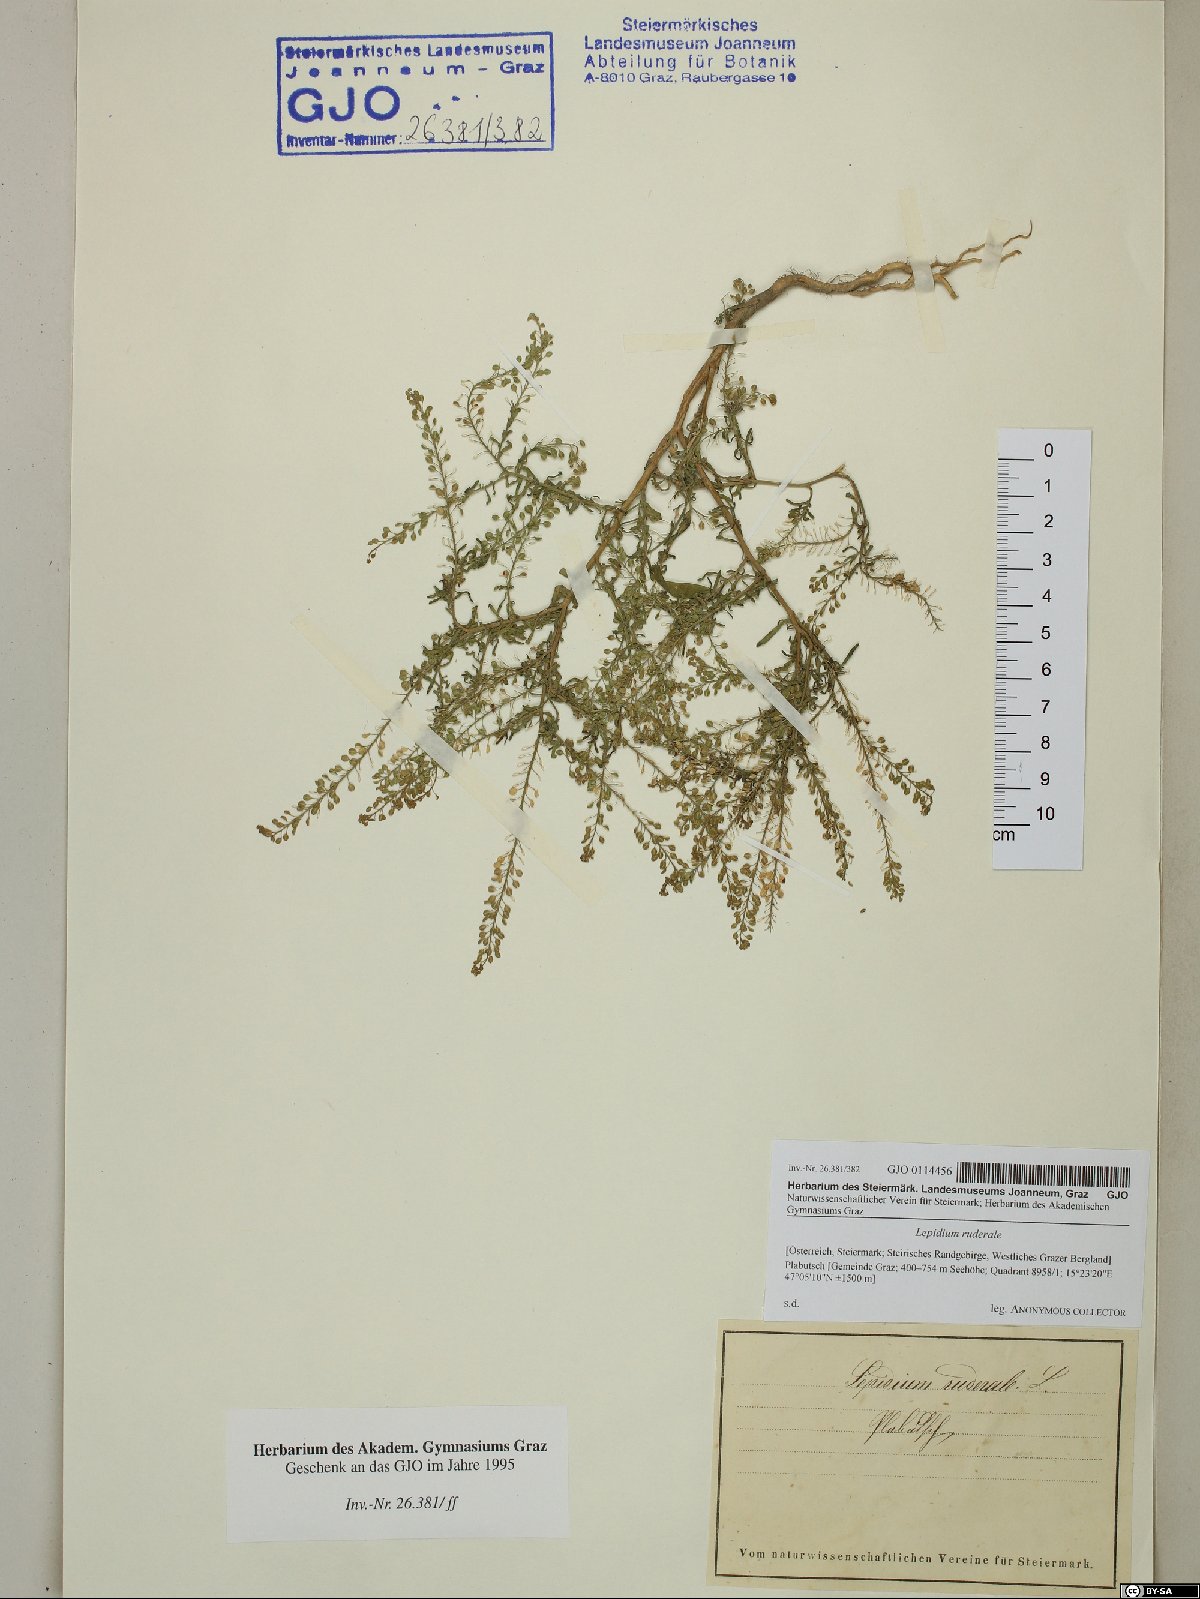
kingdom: Plantae
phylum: Tracheophyta
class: Magnoliopsida
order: Brassicales
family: Brassicaceae
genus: Lepidium
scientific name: Lepidium ruderale
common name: Narrow-leaved pepperwort
